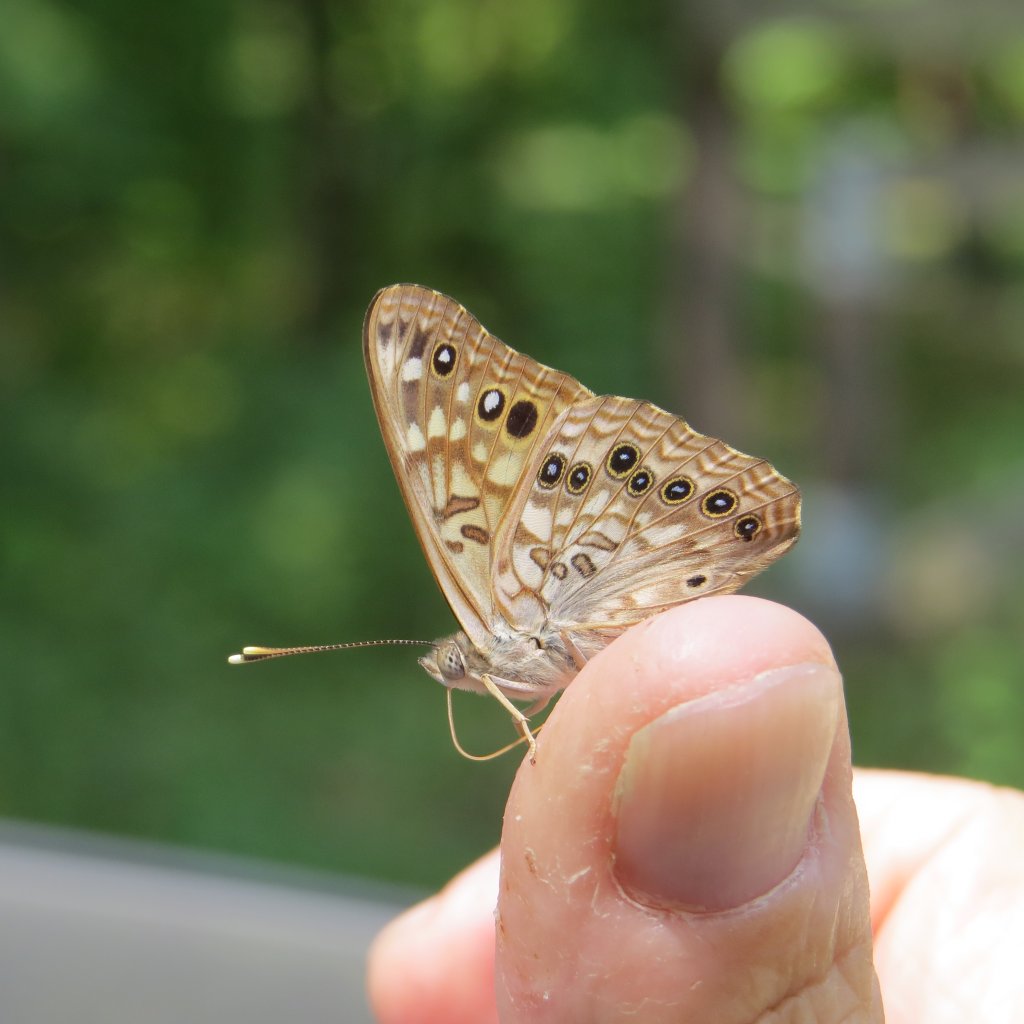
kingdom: Animalia
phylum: Arthropoda
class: Insecta
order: Lepidoptera
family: Nymphalidae
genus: Asterocampa
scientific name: Asterocampa celtis
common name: Hackberry Emperor
